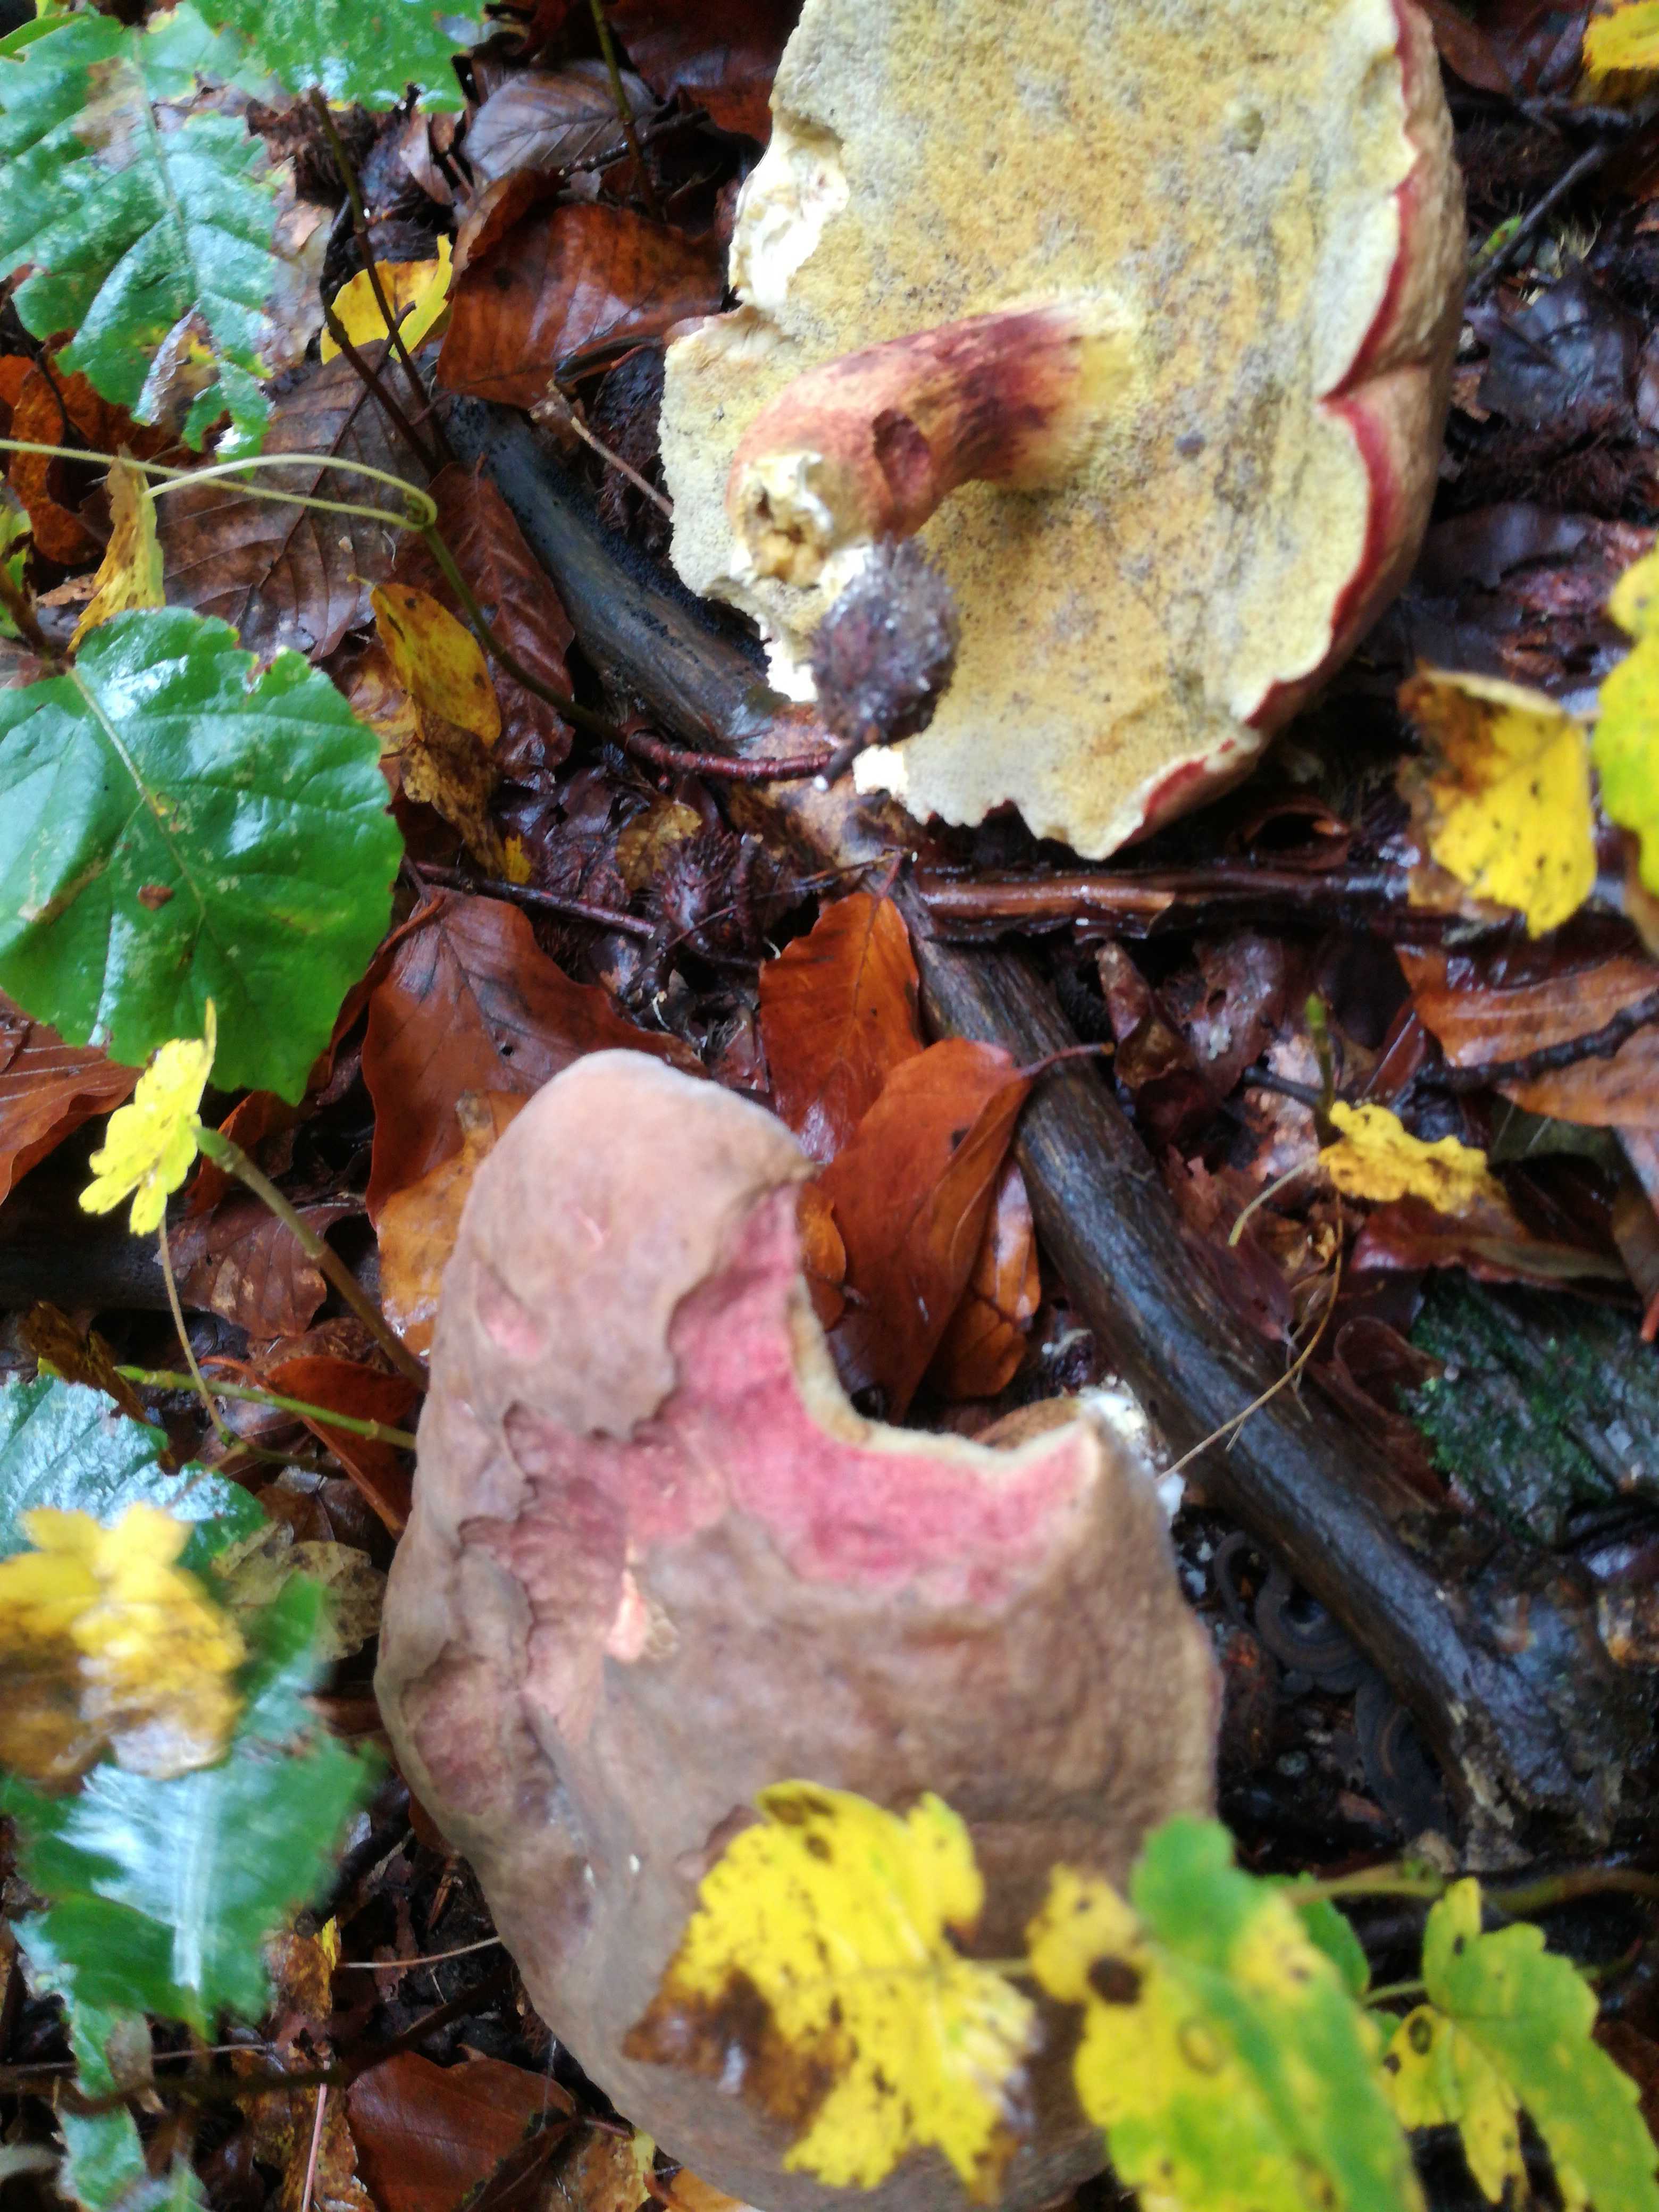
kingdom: Fungi
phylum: Basidiomycota
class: Agaricomycetes
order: Boletales
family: Boletaceae
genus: Xerocomellus
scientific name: Xerocomellus pruinatus
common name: dugget rørhat
